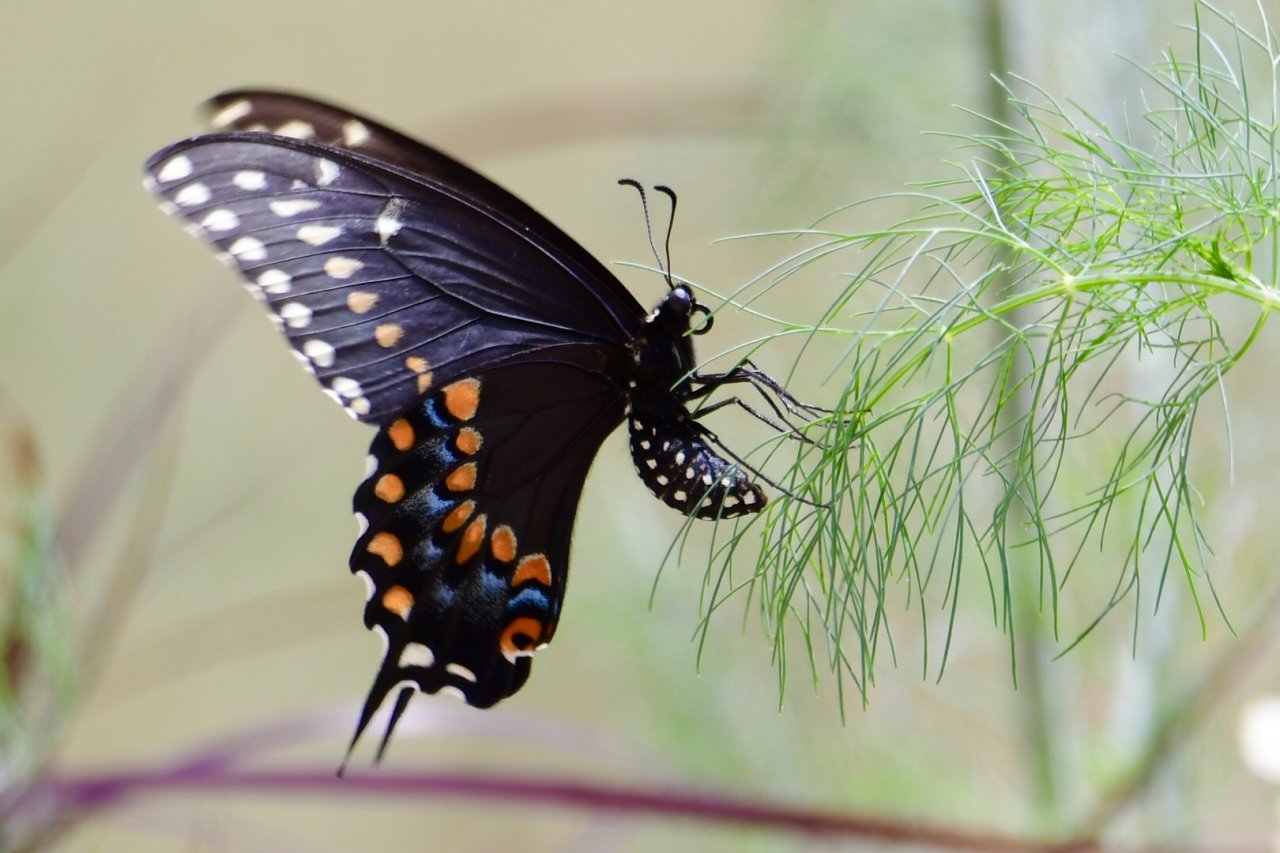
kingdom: Animalia
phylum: Arthropoda
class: Insecta
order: Lepidoptera
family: Papilionidae
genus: Papilio
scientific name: Papilio polyxenes
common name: Black Swallowtail
